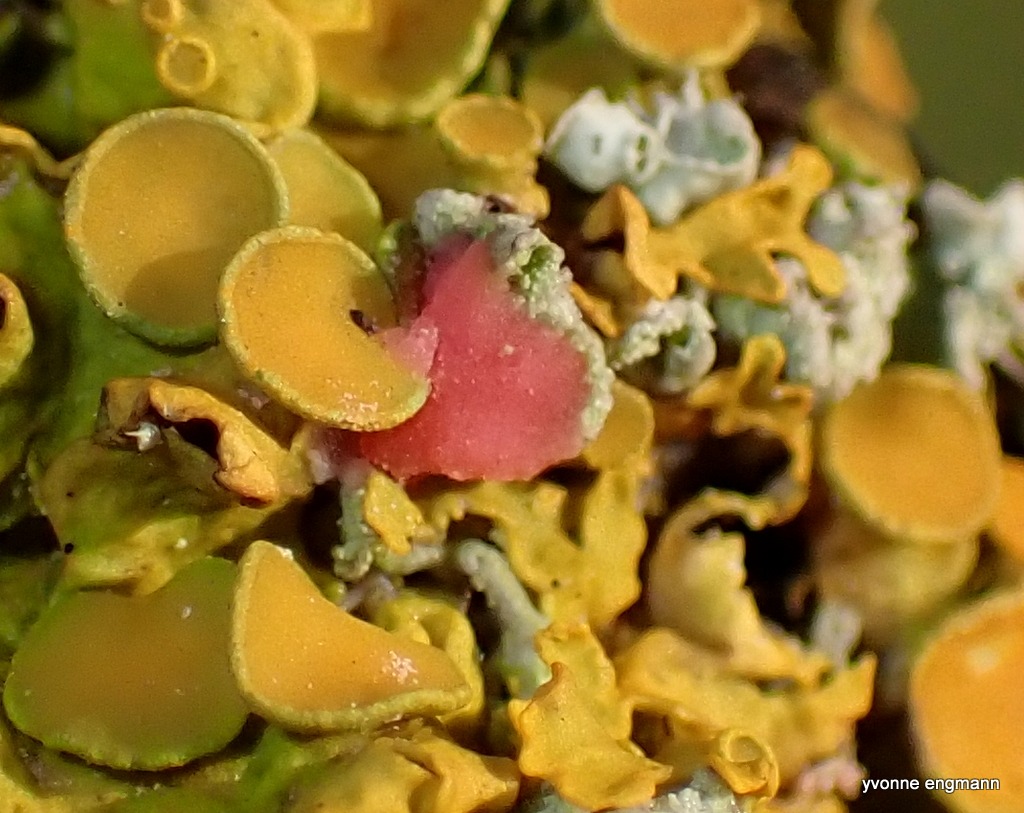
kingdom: Fungi
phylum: Ascomycota
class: Sordariomycetes
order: Hypocreales
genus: Illosporiopsis
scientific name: Illosporiopsis christiansenii
